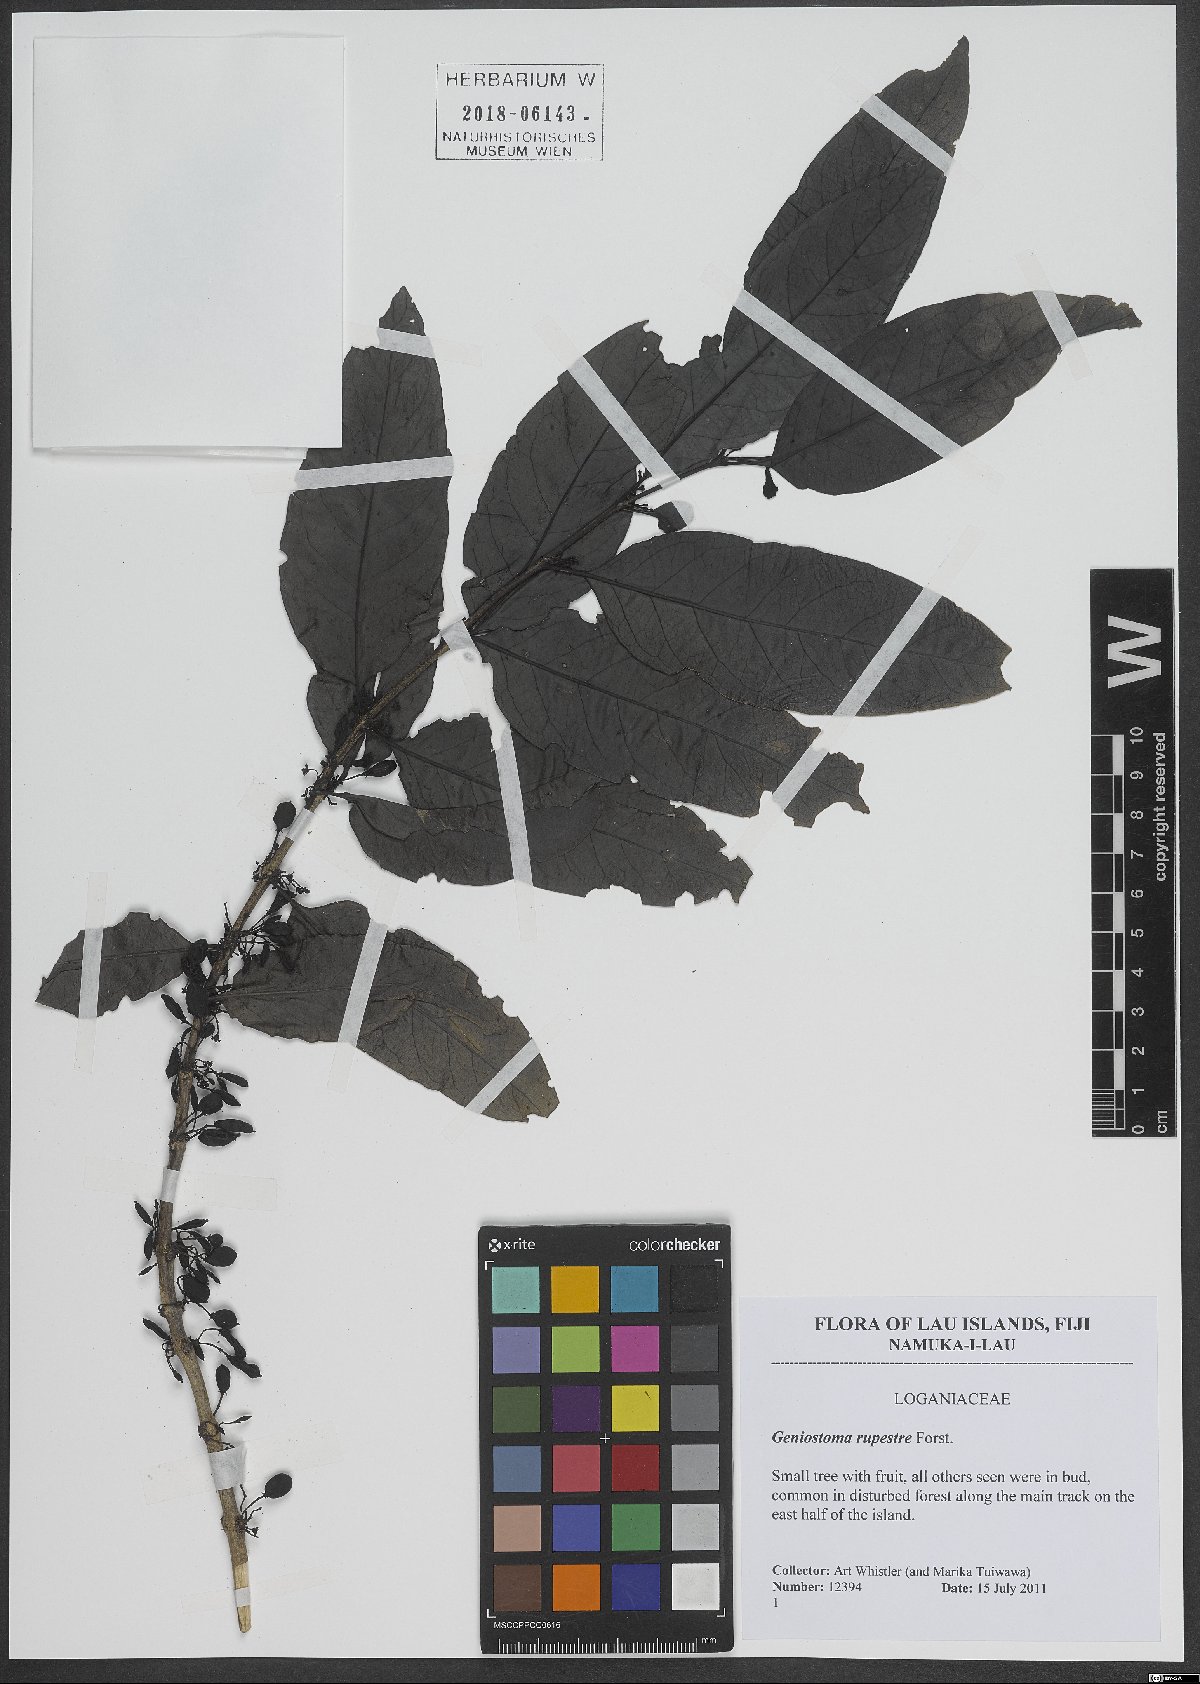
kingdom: Plantae
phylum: Tracheophyta
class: Magnoliopsida
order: Gentianales
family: Loganiaceae
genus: Geniostoma
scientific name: Geniostoma rupestre
